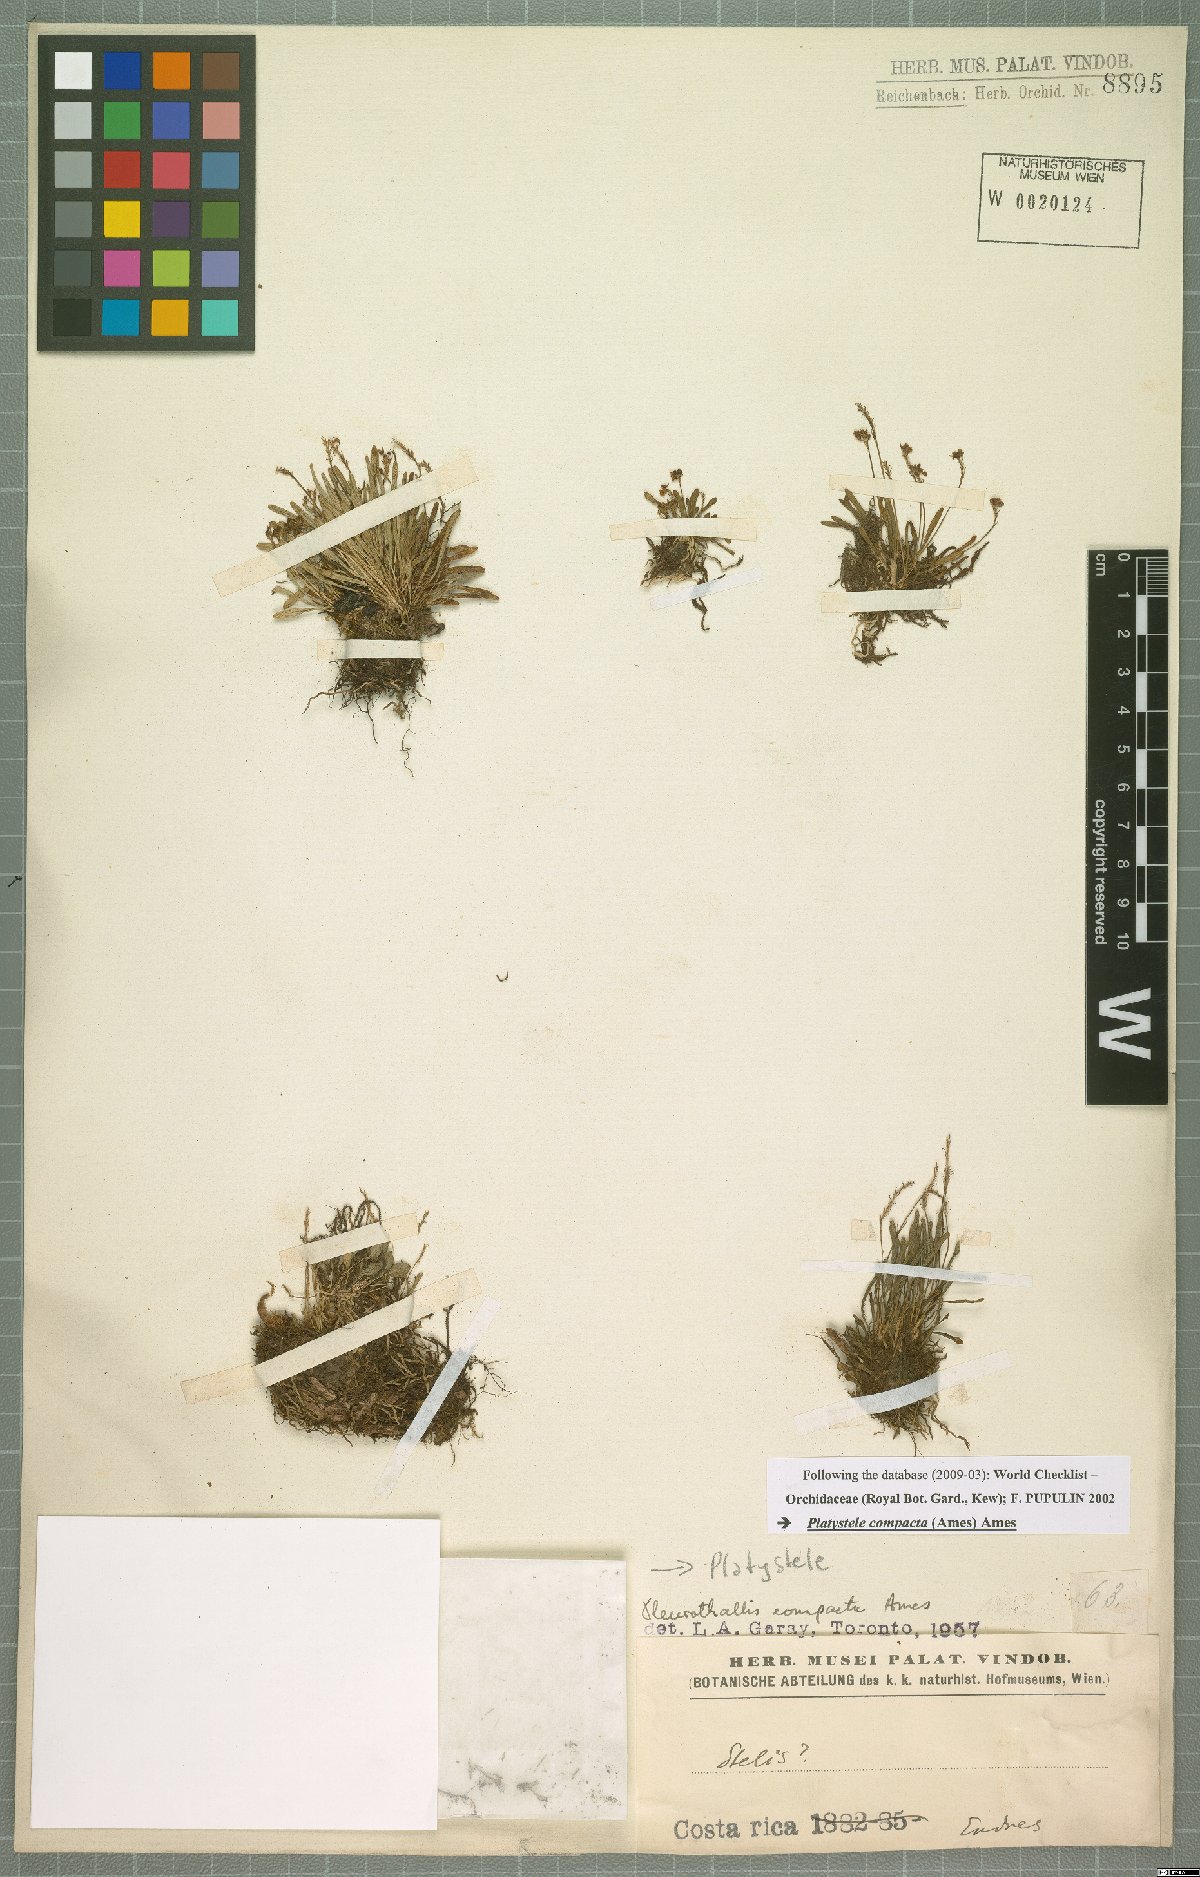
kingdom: Plantae
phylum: Tracheophyta
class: Liliopsida
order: Asparagales
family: Orchidaceae
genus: Platystele
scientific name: Platystele compacta
